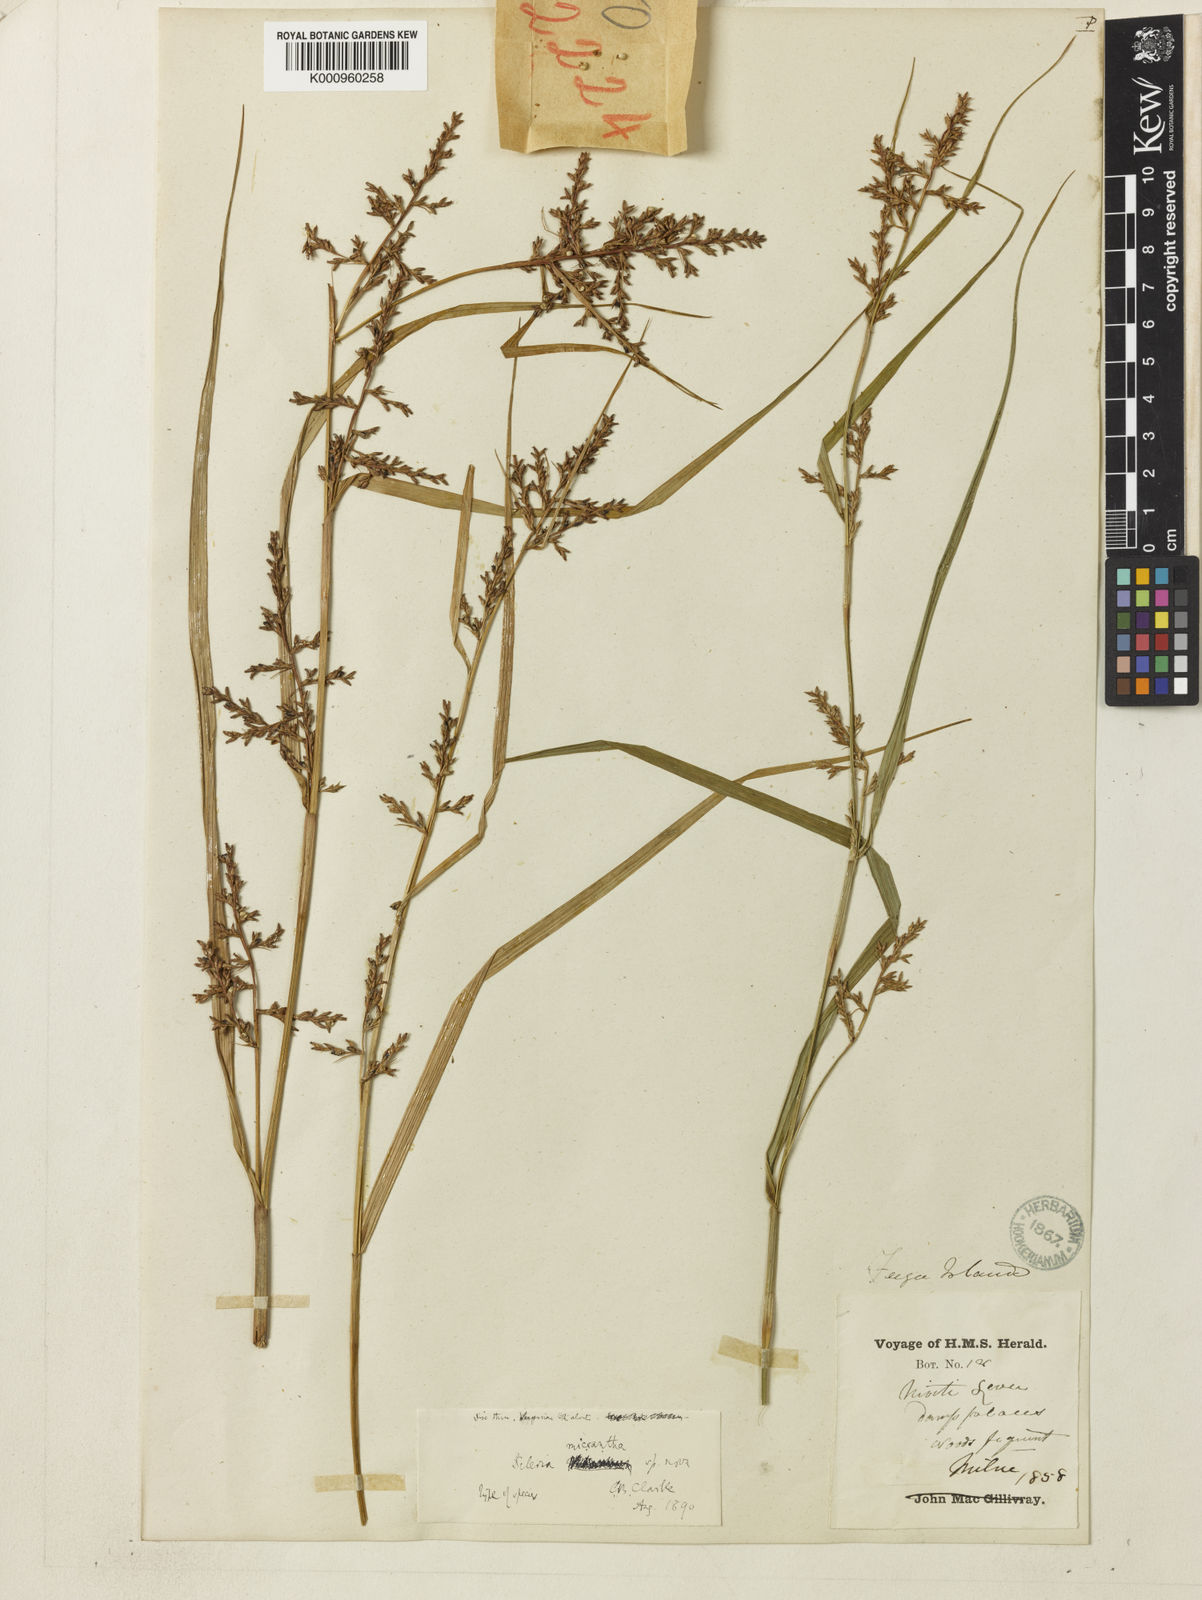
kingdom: Plantae
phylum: Tracheophyta
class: Liliopsida
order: Poales
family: Cyperaceae
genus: Scleria
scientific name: Scleria polycarpa
